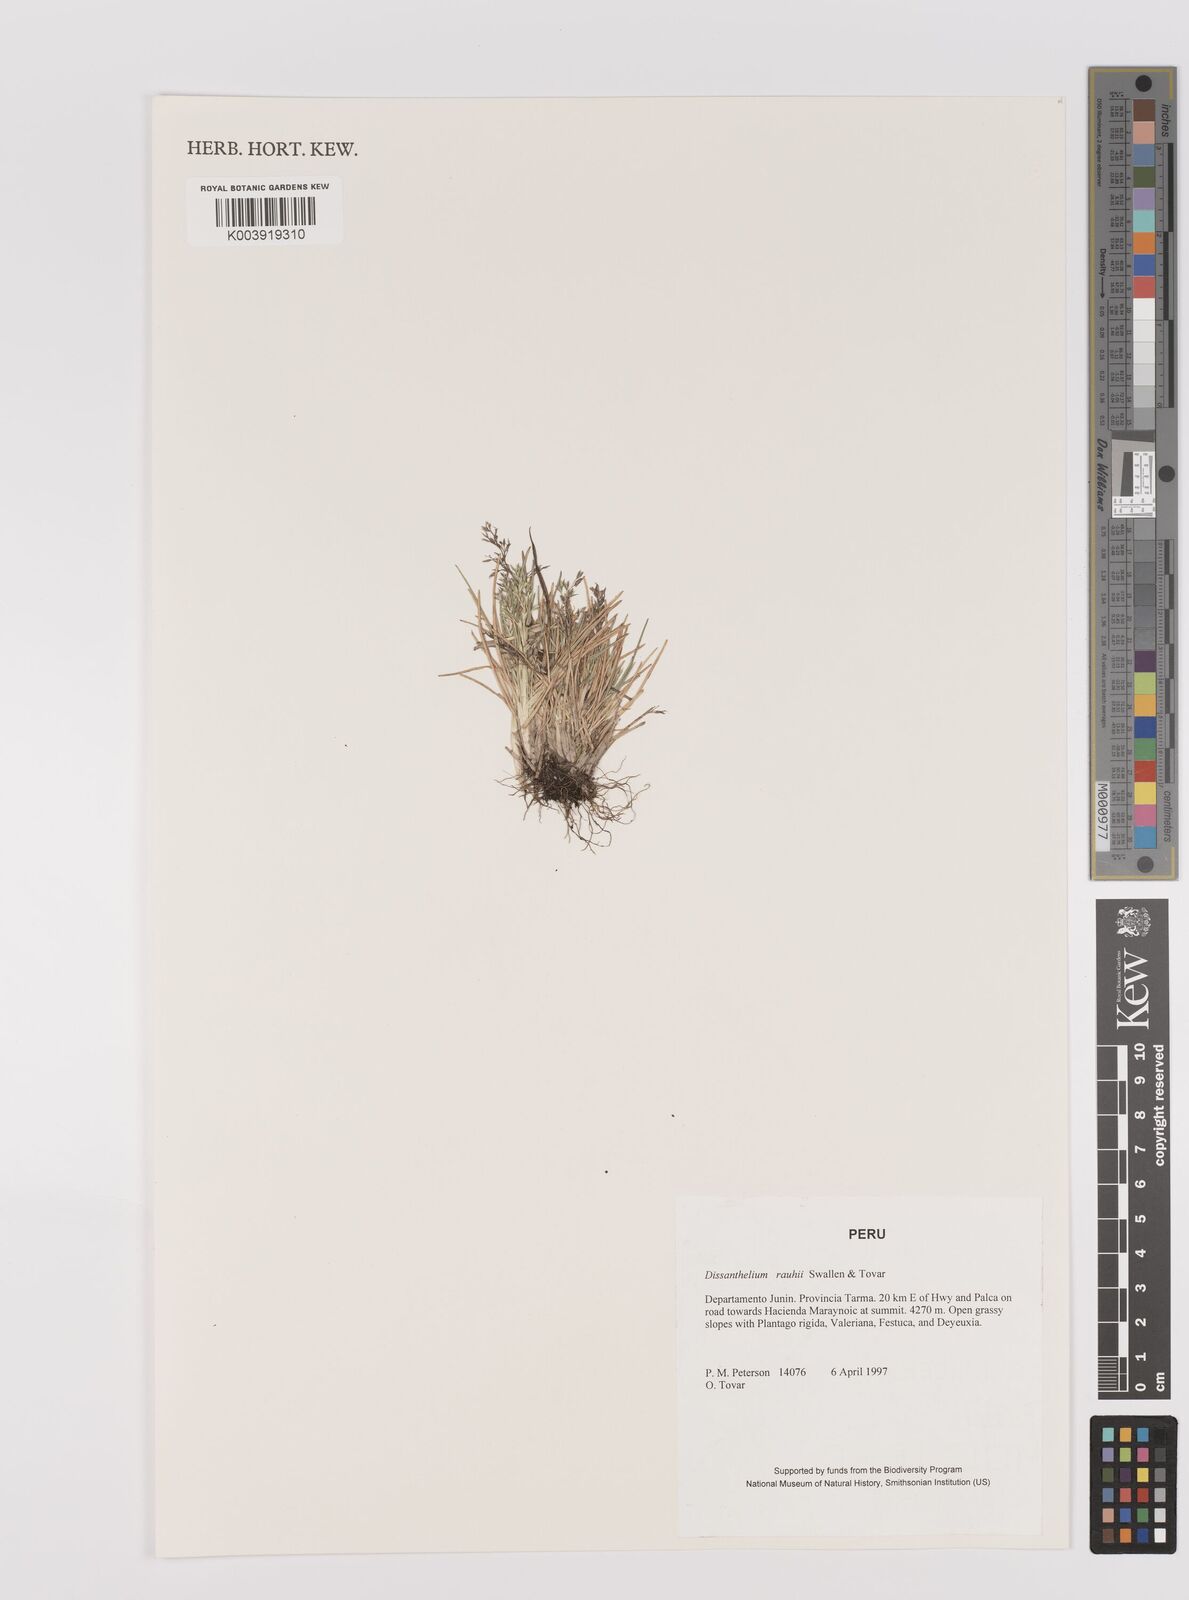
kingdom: Plantae
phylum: Tracheophyta
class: Liliopsida
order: Poales
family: Poaceae
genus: Poa
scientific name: Poa rauhii
